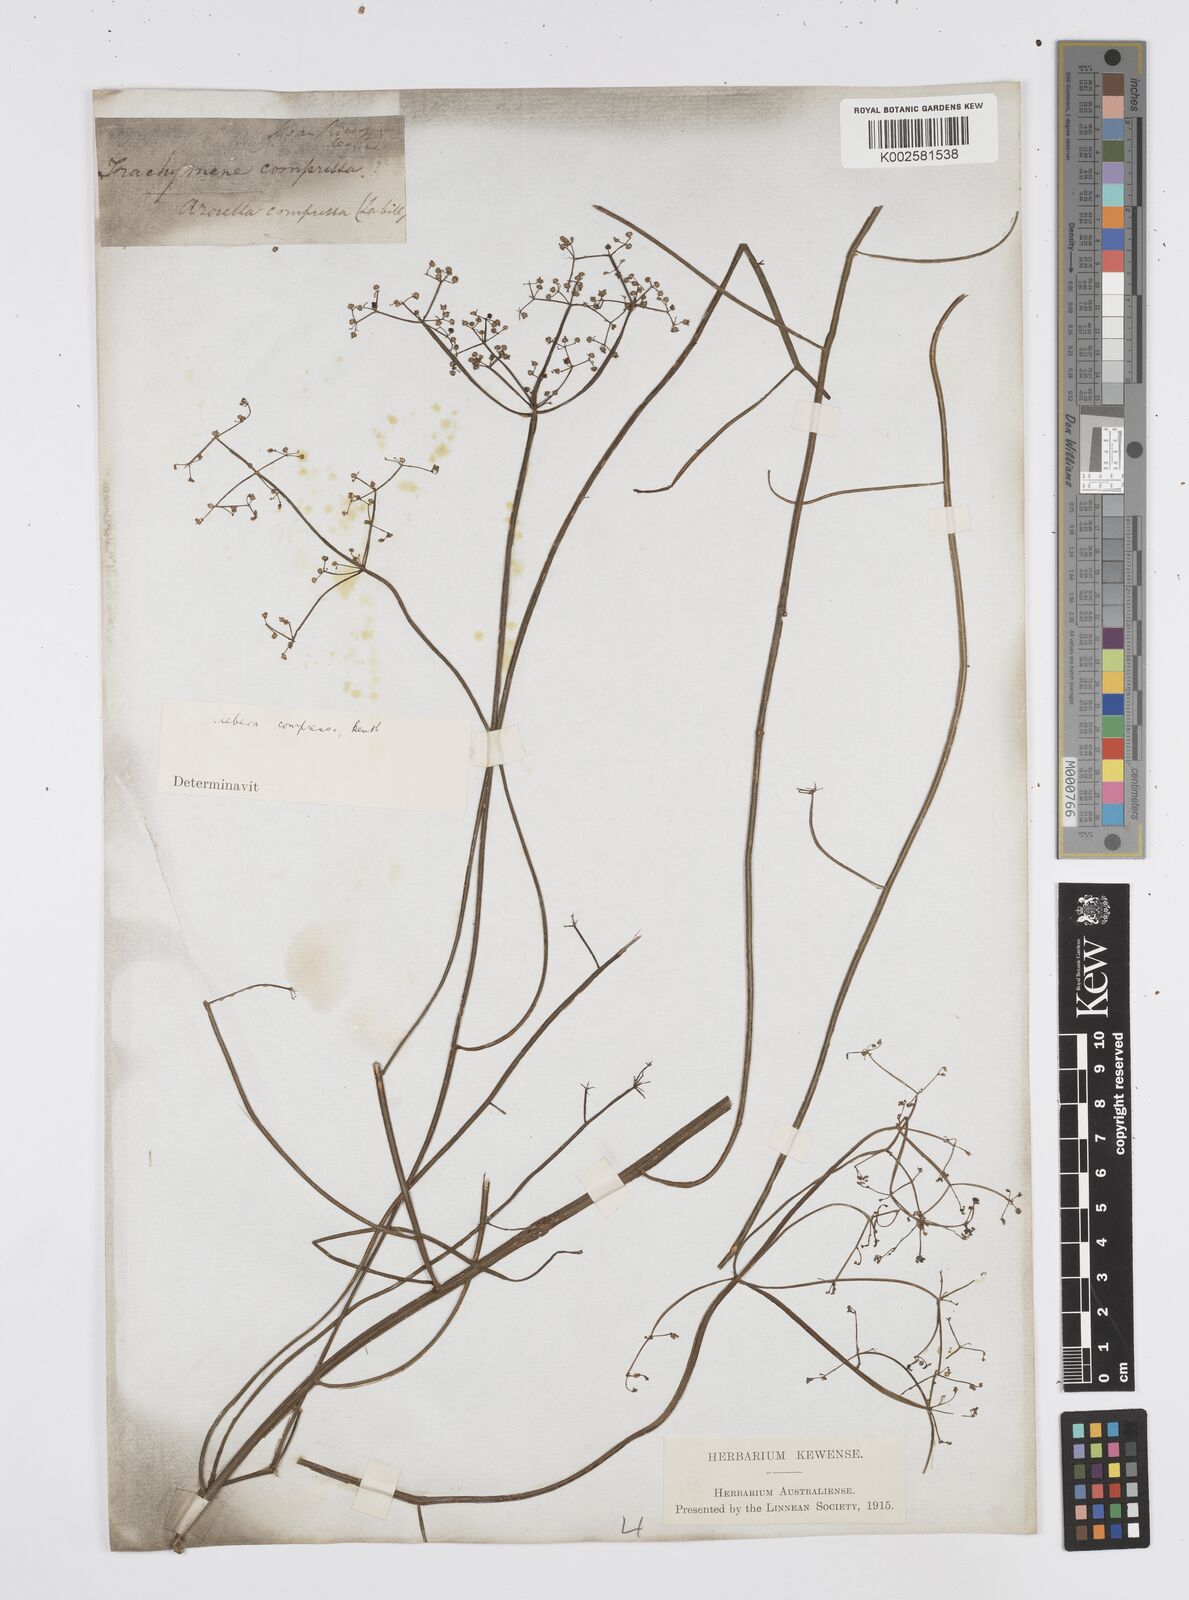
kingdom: Plantae
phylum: Tracheophyta
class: Magnoliopsida
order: Apiales
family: Apiaceae
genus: Centella
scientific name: Centella
